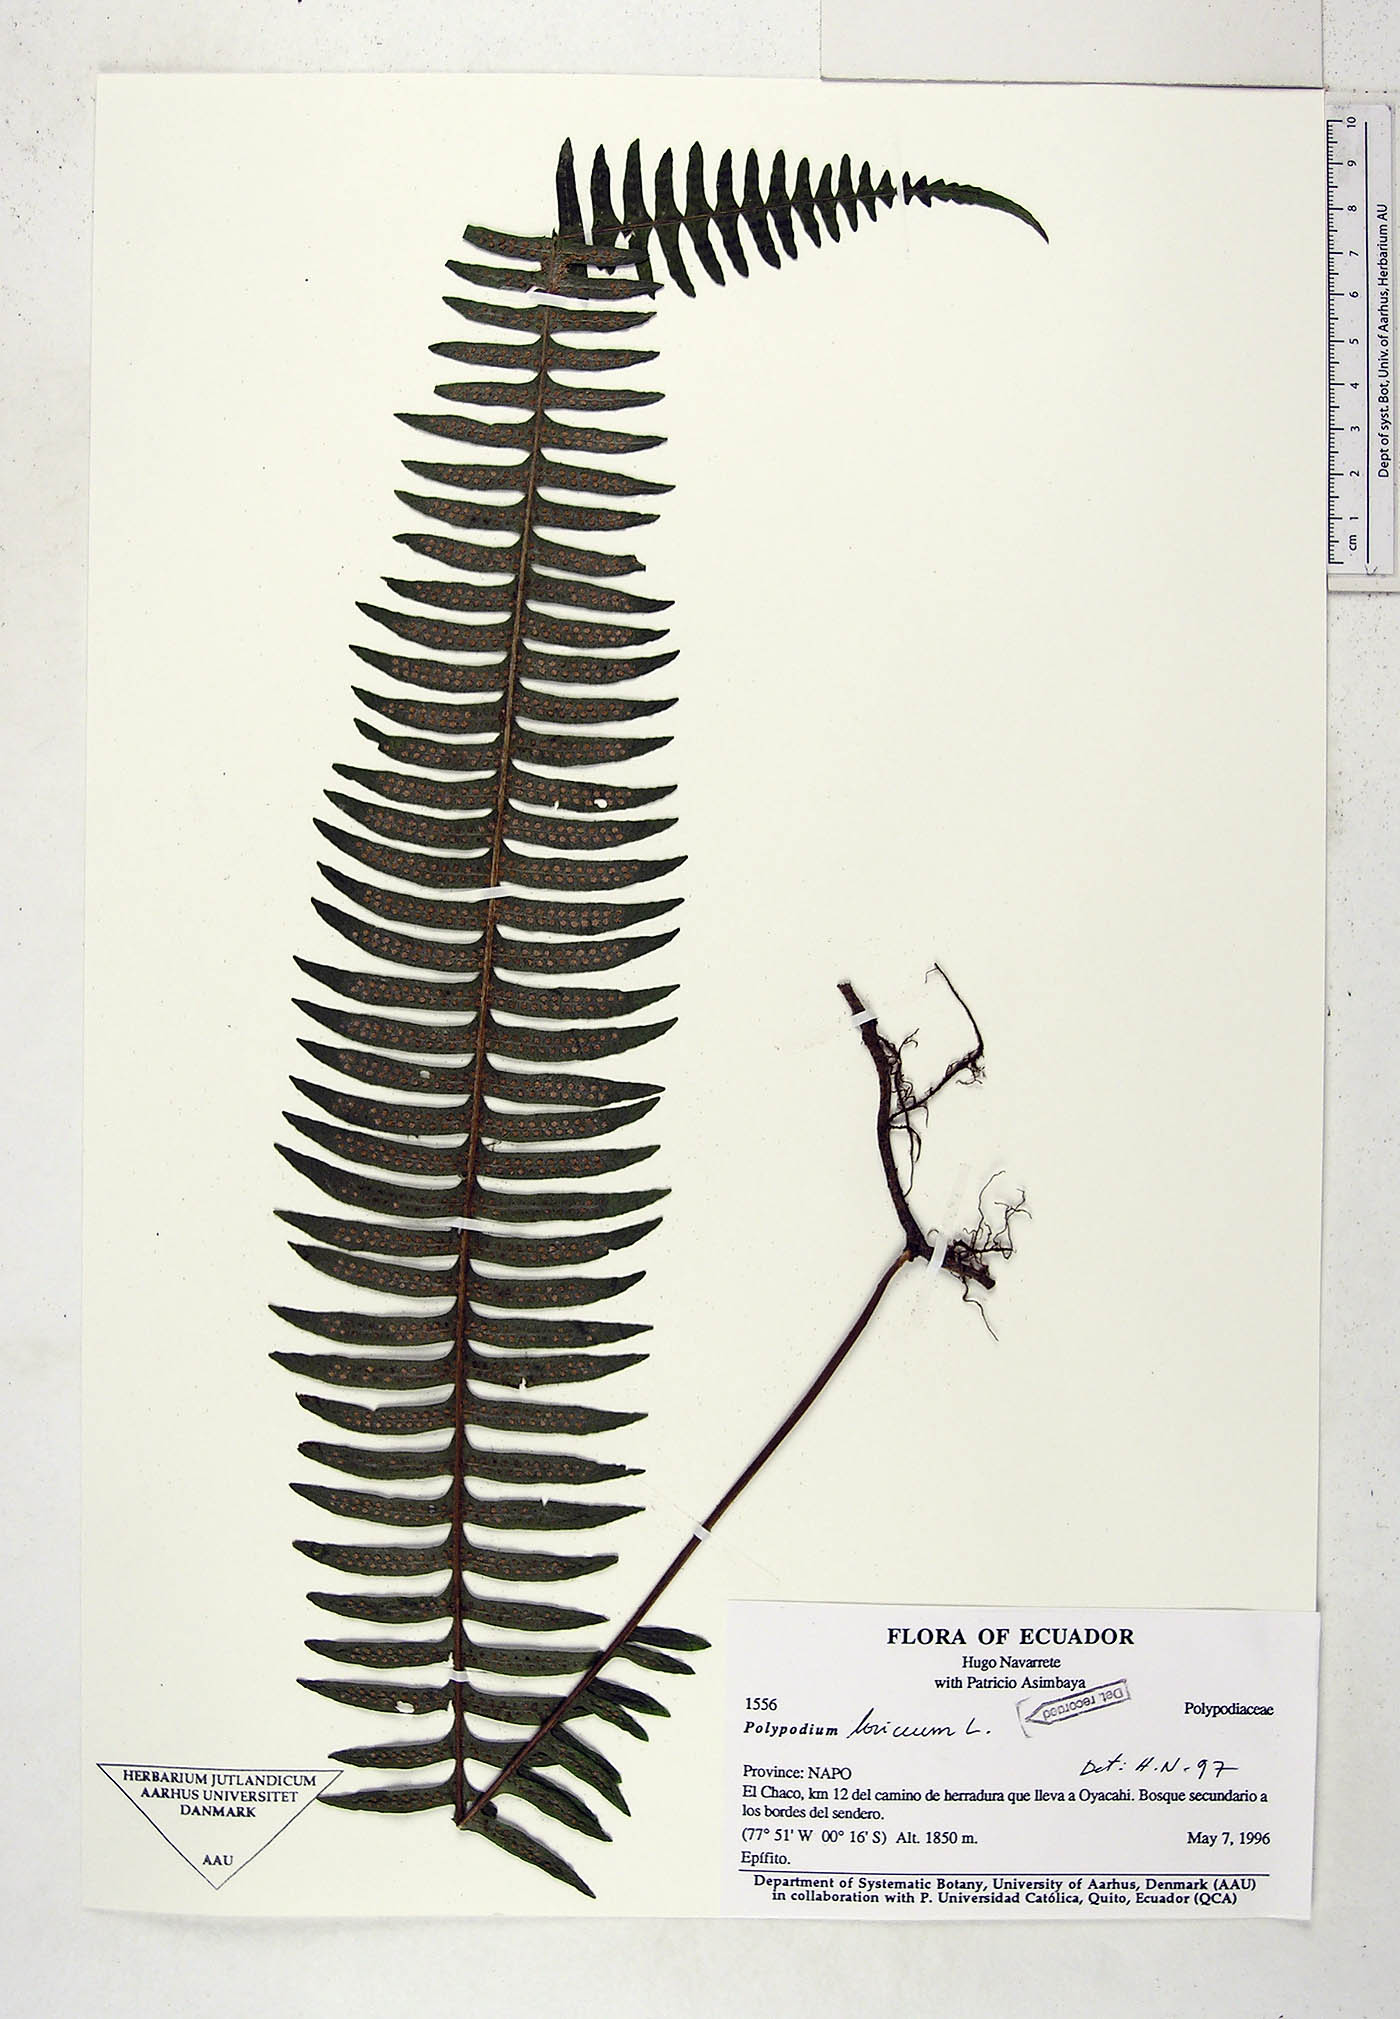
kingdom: Plantae
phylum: Tracheophyta
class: Polypodiopsida
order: Polypodiales
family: Polypodiaceae
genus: Serpocaulon
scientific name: Serpocaulon loriceum
